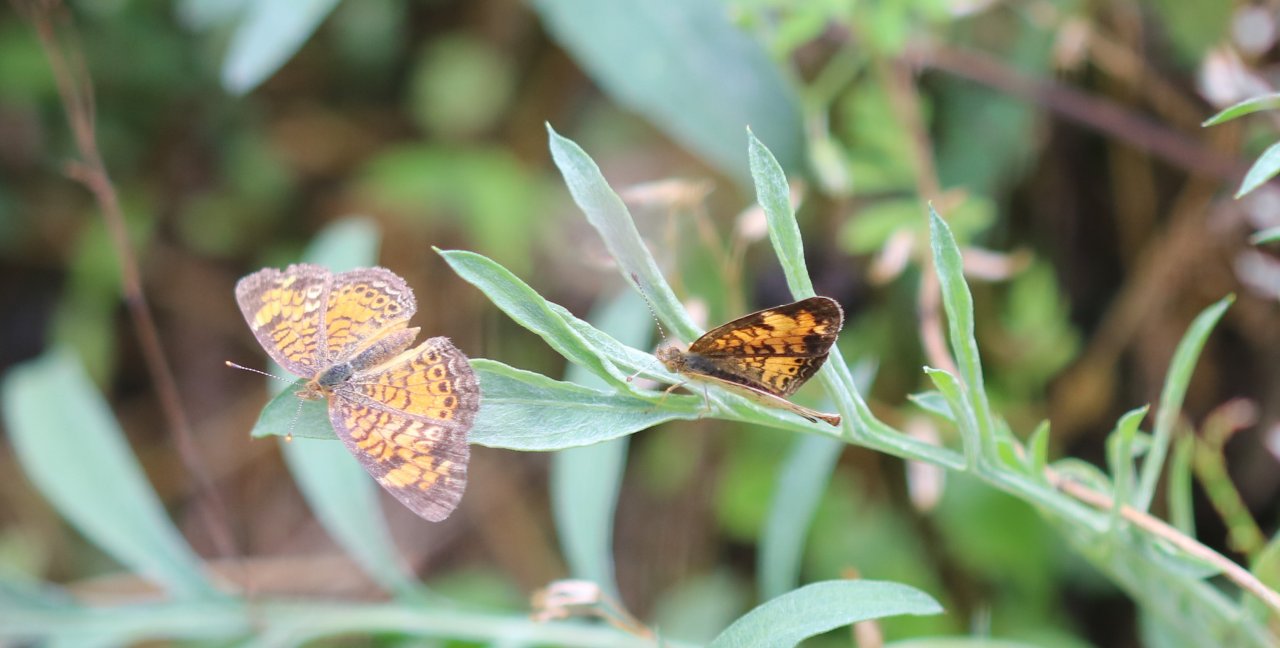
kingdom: Animalia
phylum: Arthropoda
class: Insecta
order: Lepidoptera
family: Nymphalidae
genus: Phyciodes
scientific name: Phyciodes tharos
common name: Pearl Crescent
